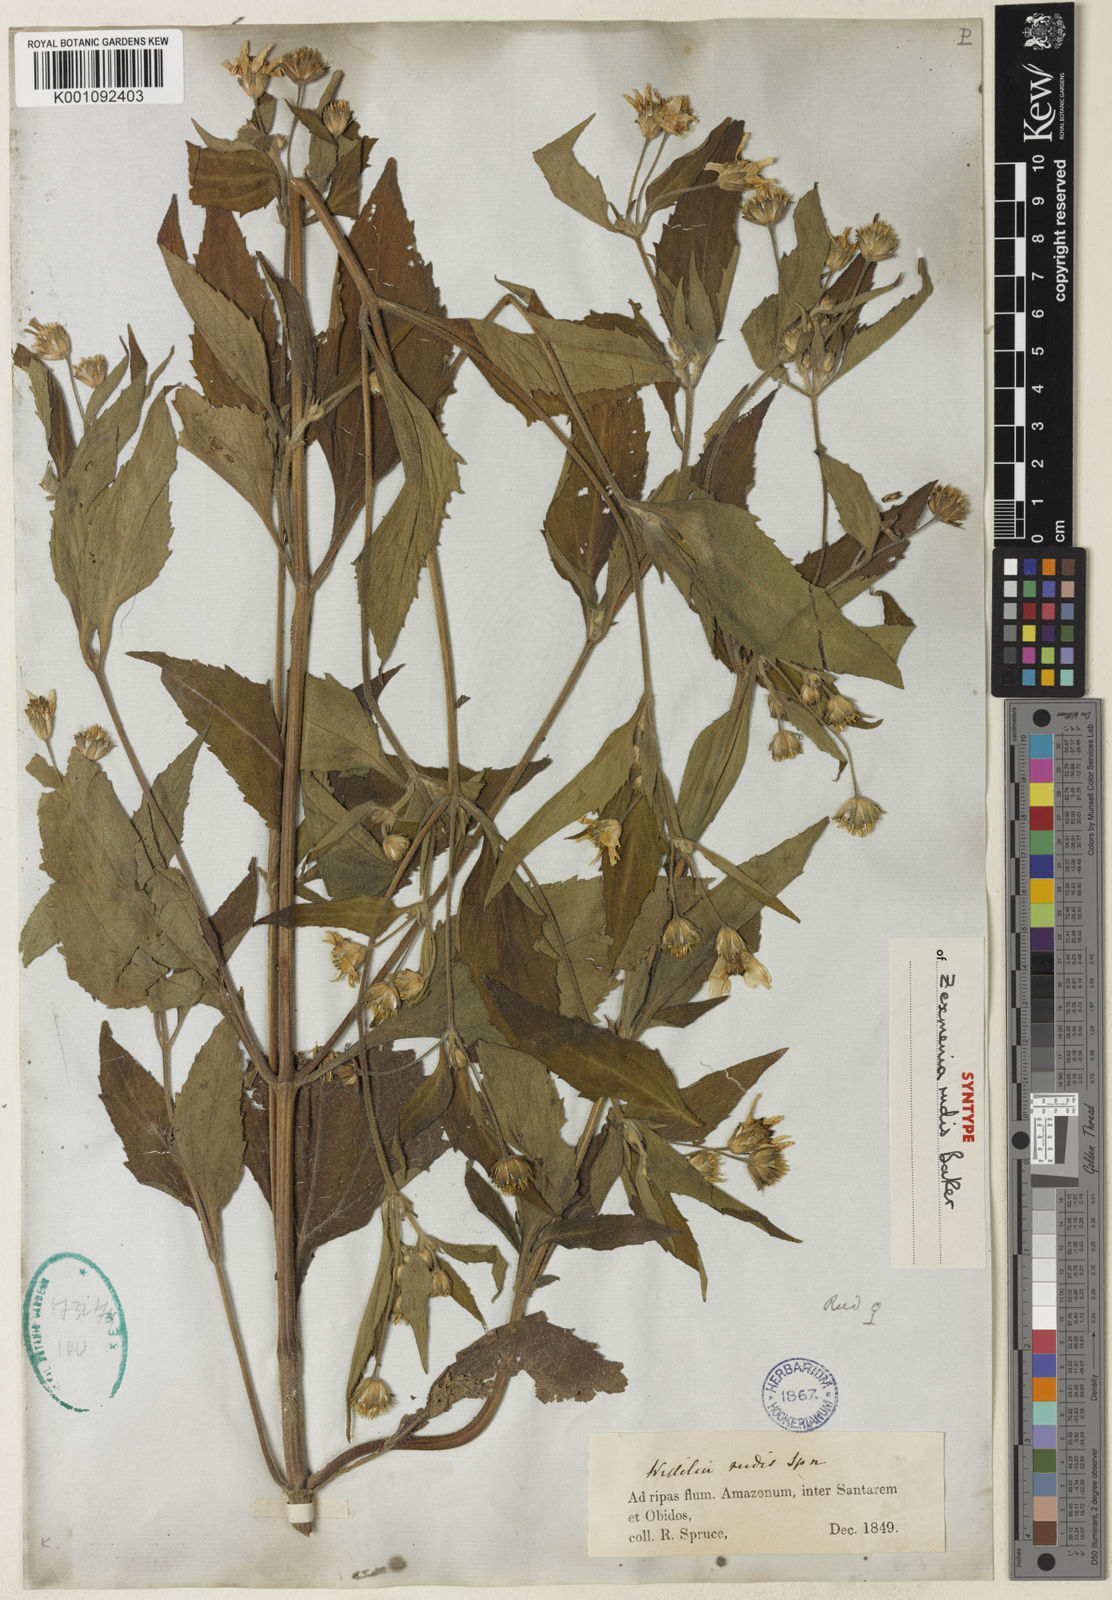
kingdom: Plantae
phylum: Tracheophyta
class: Magnoliopsida
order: Asterales
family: Asteraceae
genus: Wedelia
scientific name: Wedelia rudis
